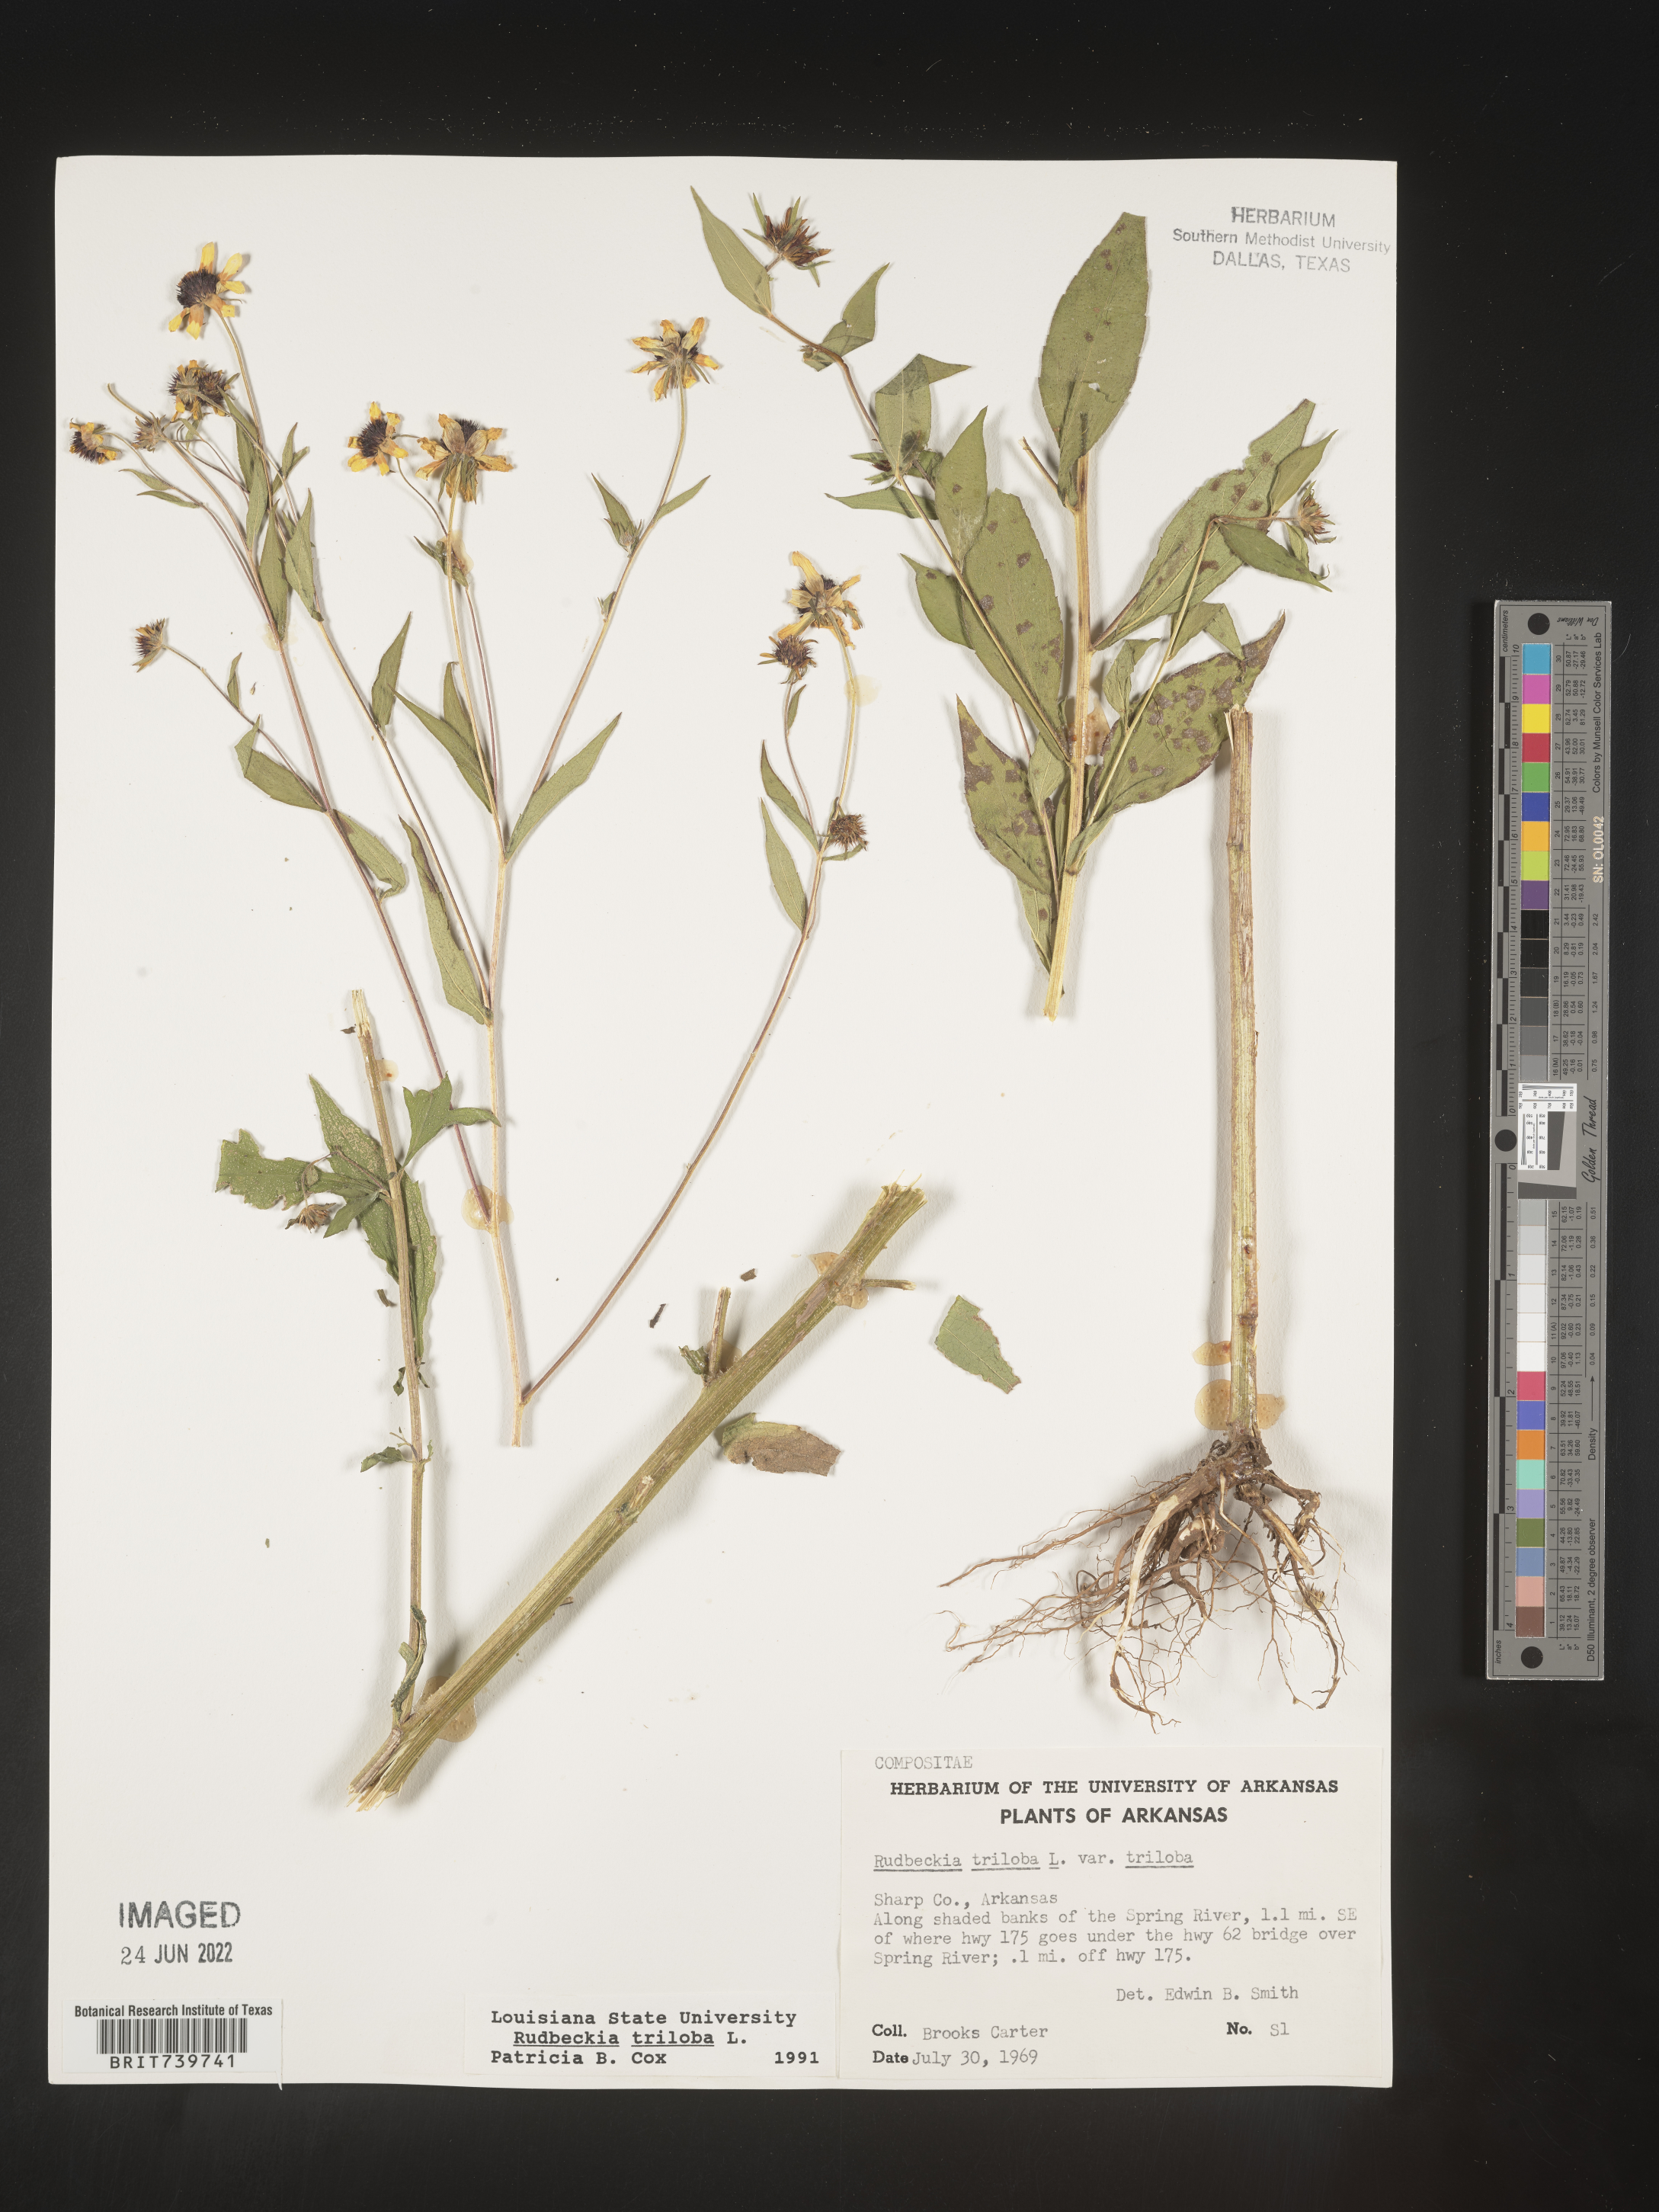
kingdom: Plantae
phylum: Tracheophyta
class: Magnoliopsida
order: Asterales
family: Asteraceae
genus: Rudbeckia
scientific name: Rudbeckia triloba
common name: Thin-leaved coneflower
